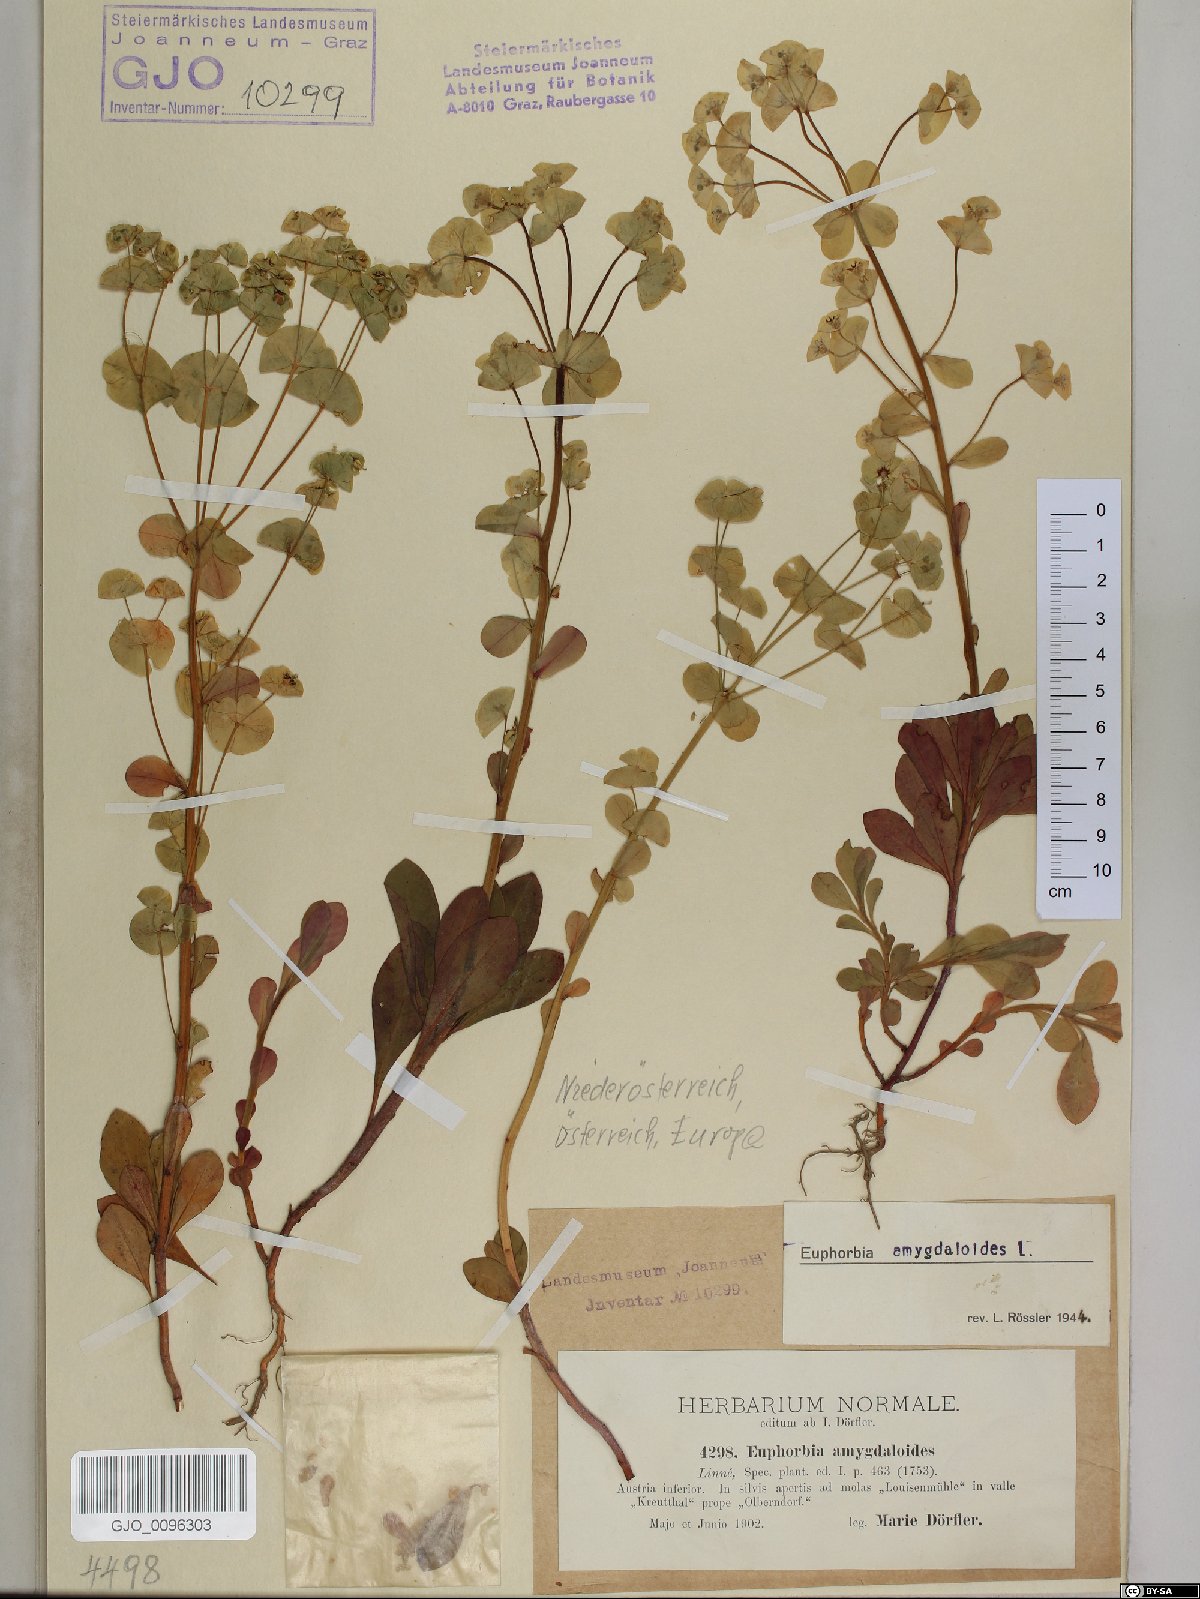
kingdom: Plantae
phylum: Tracheophyta
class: Magnoliopsida
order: Malpighiales
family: Euphorbiaceae
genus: Euphorbia
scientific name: Euphorbia amygdaloides
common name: Wood spurge
